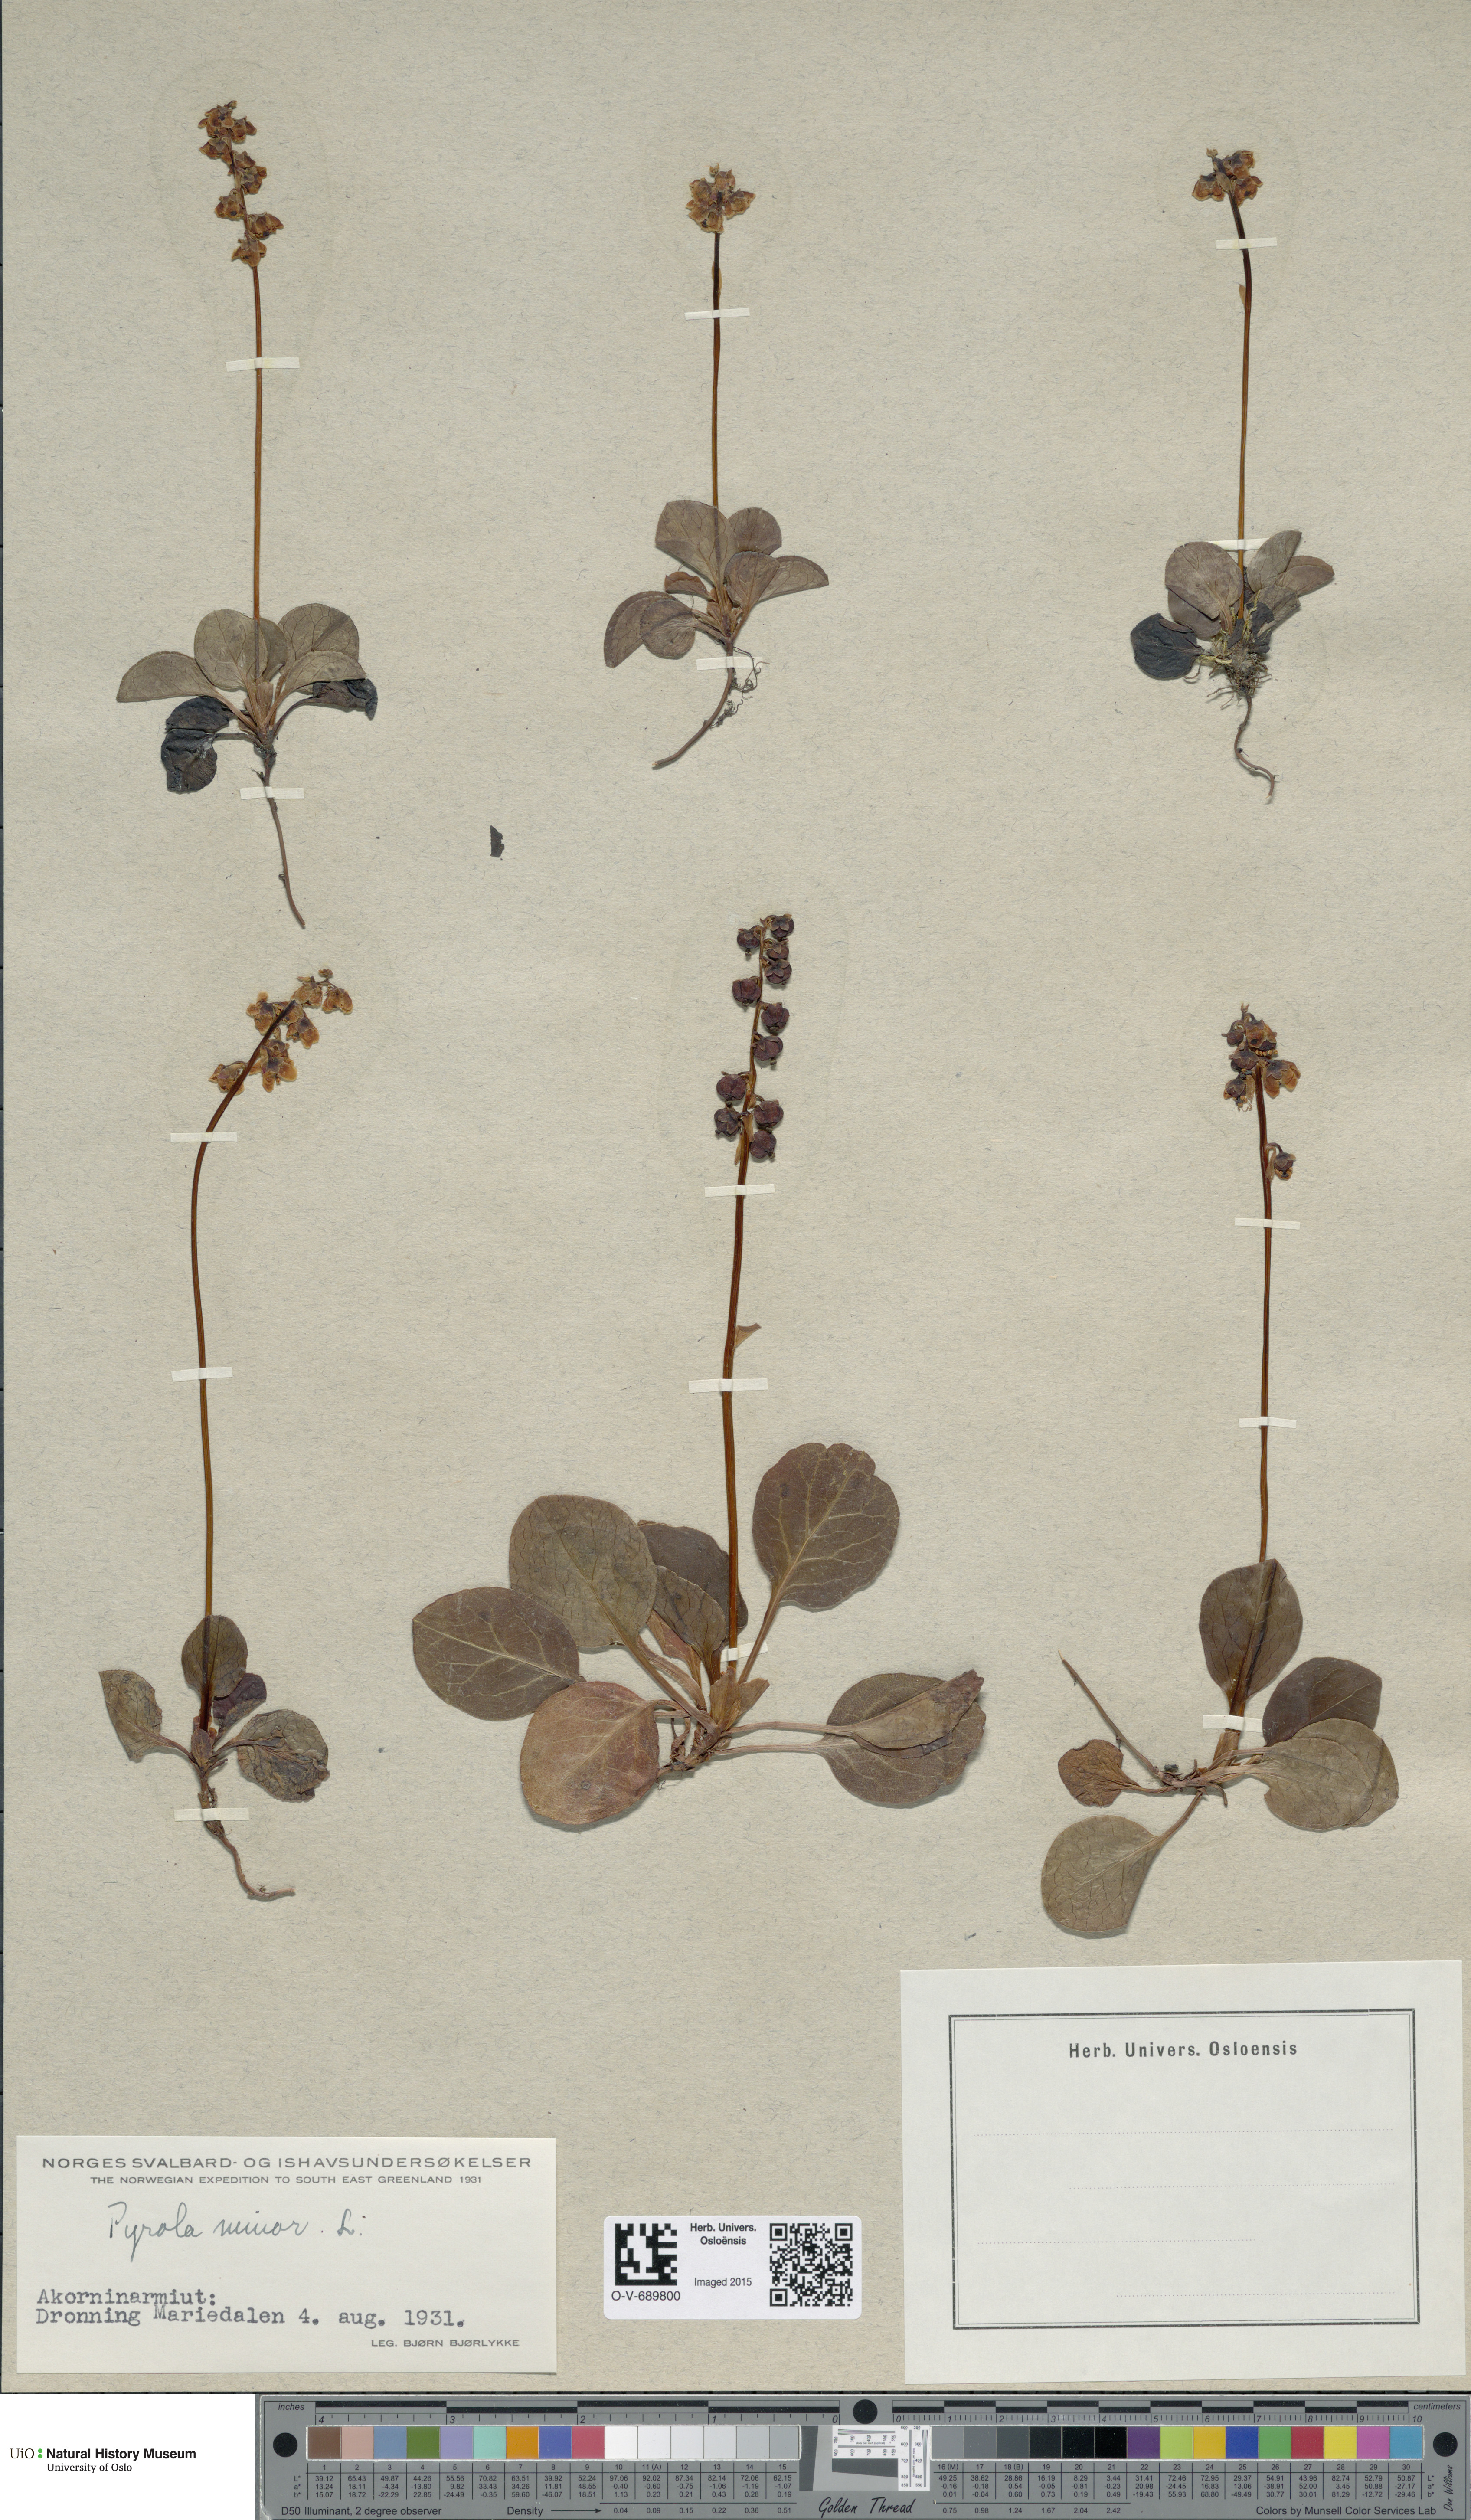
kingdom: Plantae
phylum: Tracheophyta
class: Magnoliopsida
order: Ericales
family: Ericaceae
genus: Pyrola
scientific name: Pyrola minor
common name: Common wintergreen
